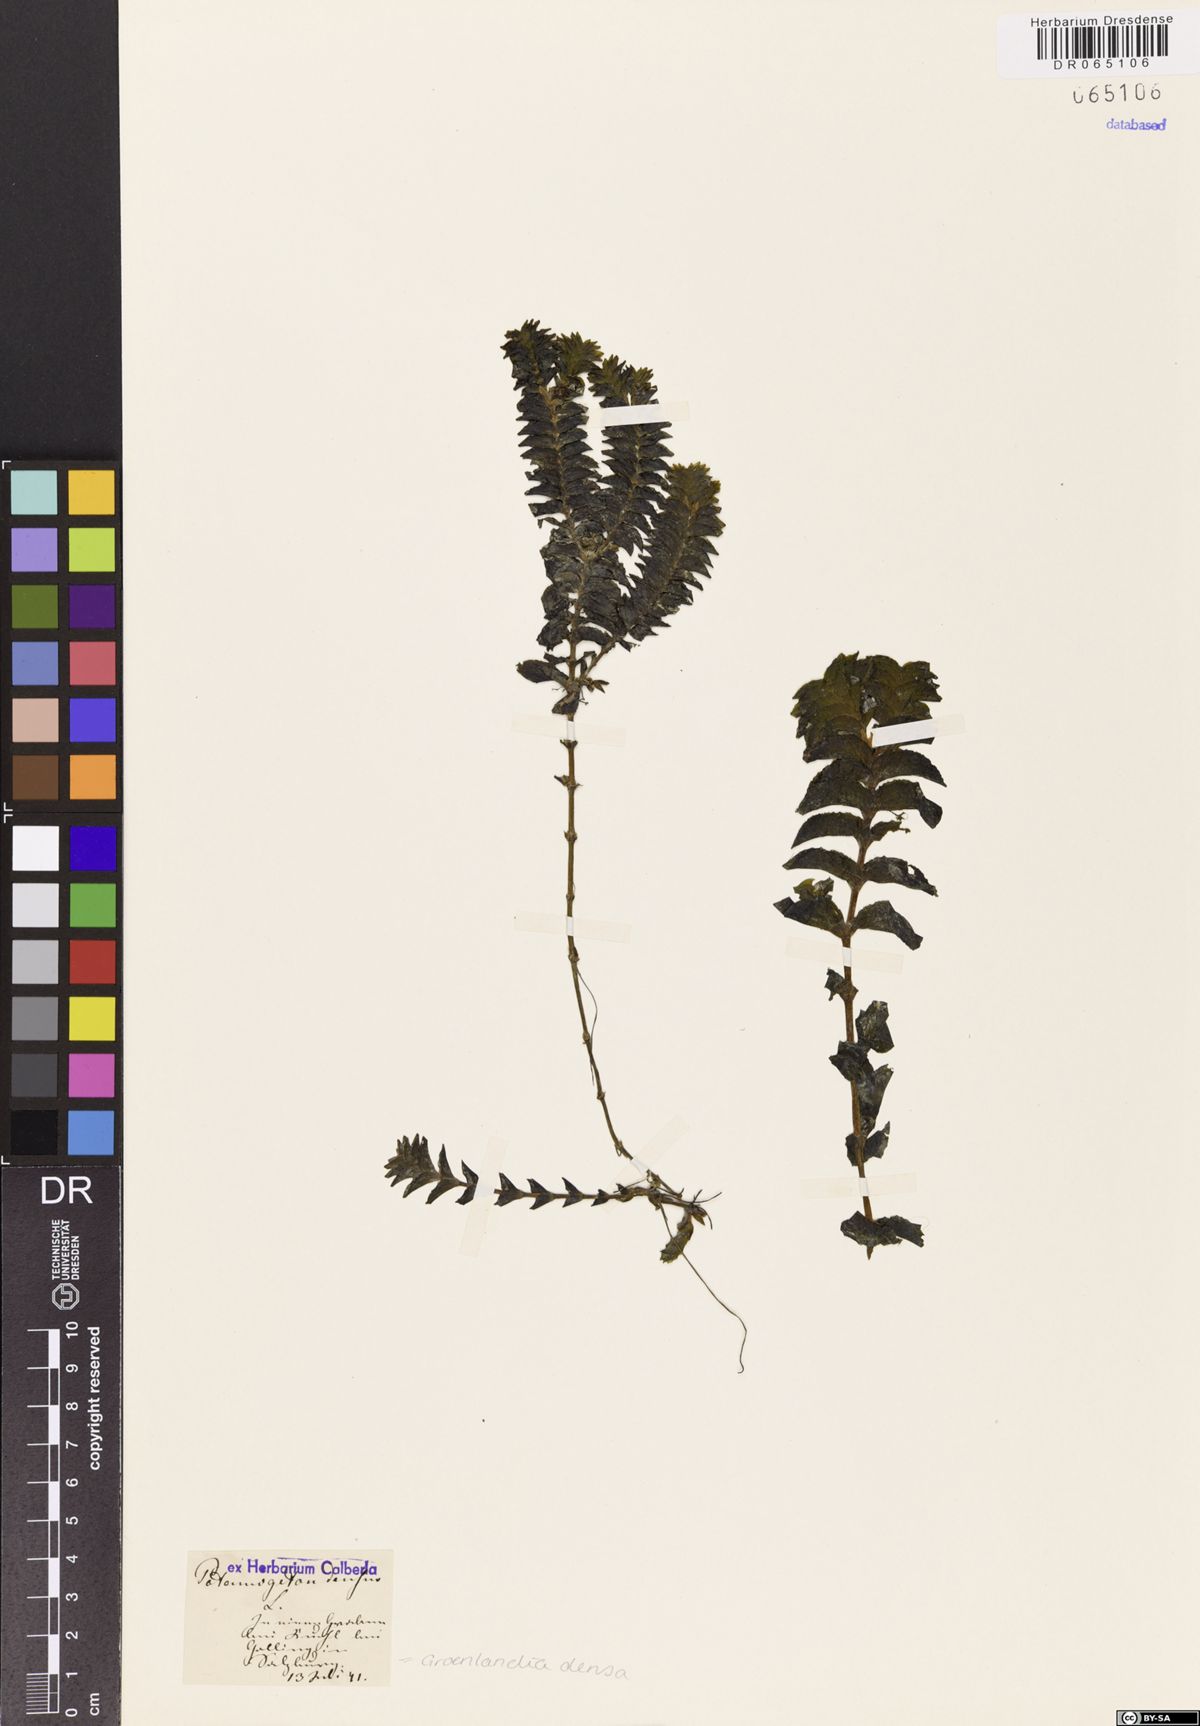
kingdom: Plantae
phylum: Tracheophyta
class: Liliopsida
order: Alismatales
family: Potamogetonaceae
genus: Groenlandia
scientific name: Groenlandia densa
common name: Opposite-leaved pondweed
